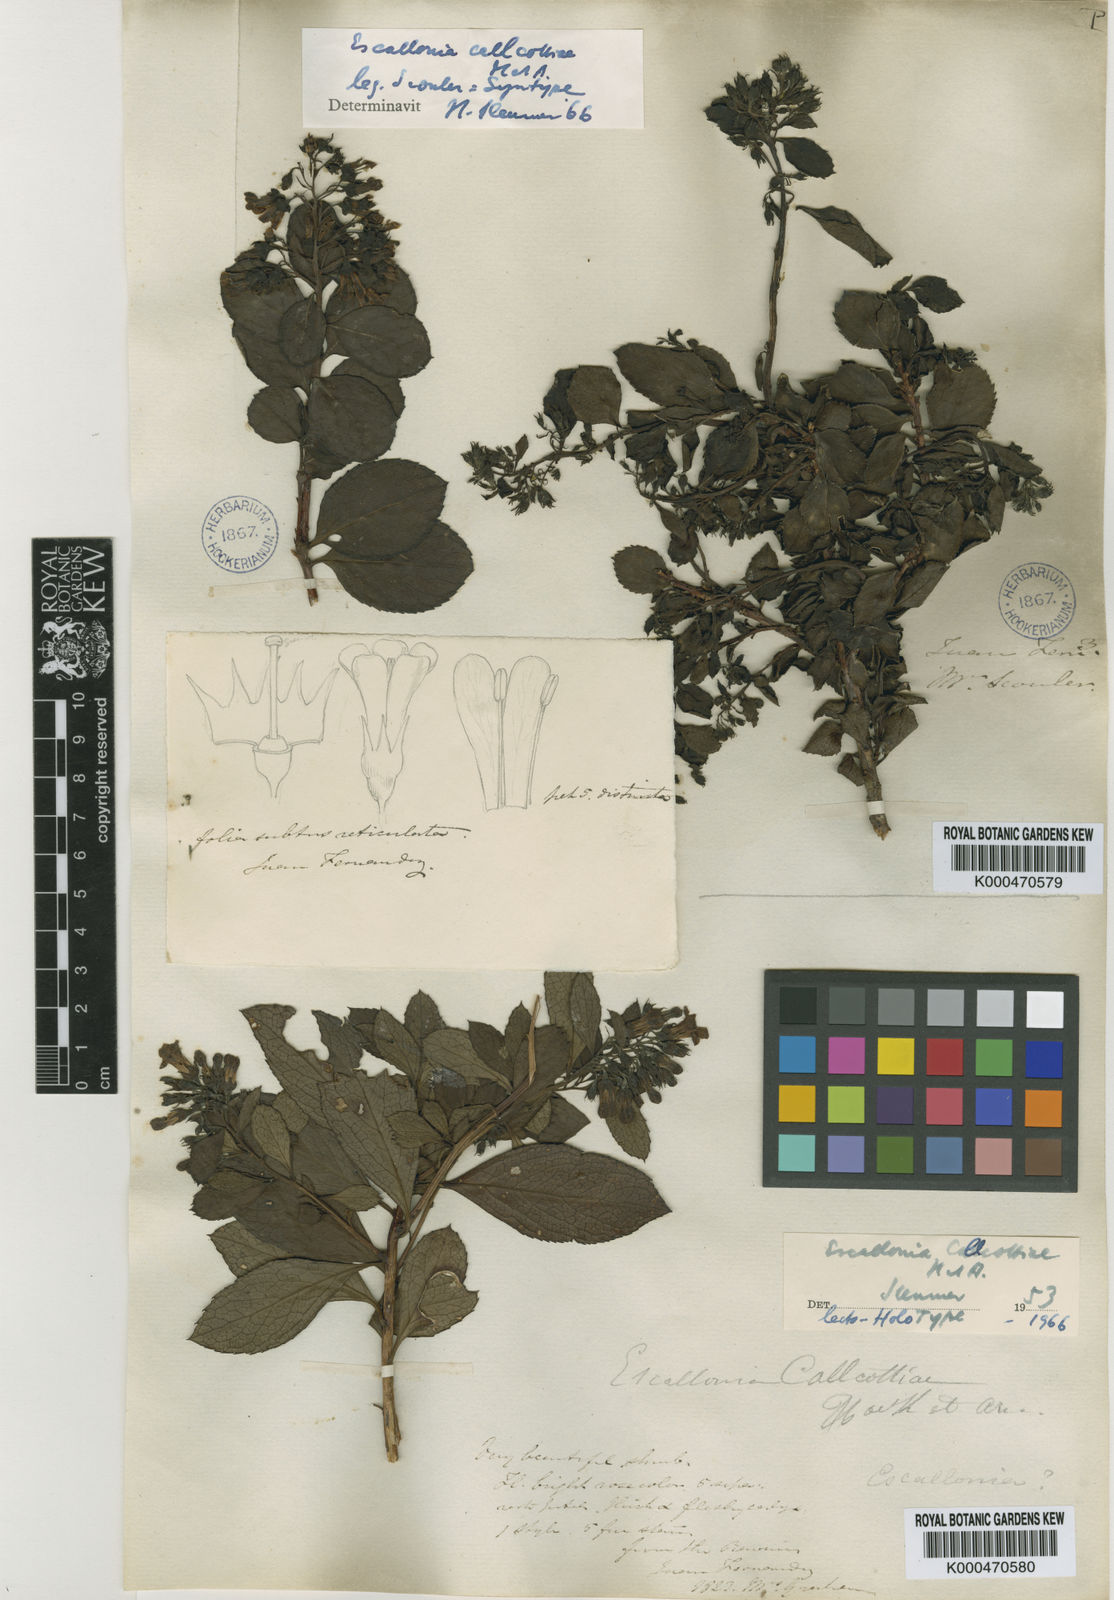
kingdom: Plantae
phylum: Tracheophyta
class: Magnoliopsida
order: Escalloniales
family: Escalloniaceae
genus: Escallonia
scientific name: Escallonia callcottiae
